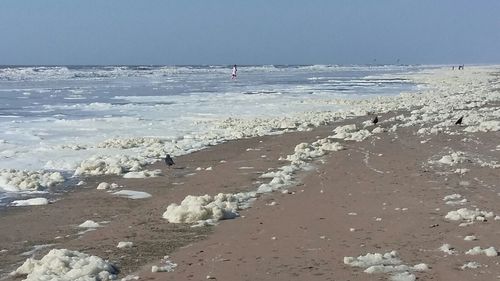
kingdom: Animalia
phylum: Chordata
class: Aves
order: Passeriformes
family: Corvidae
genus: Coloeus
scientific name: Coloeus monedula
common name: Western jackdaw
